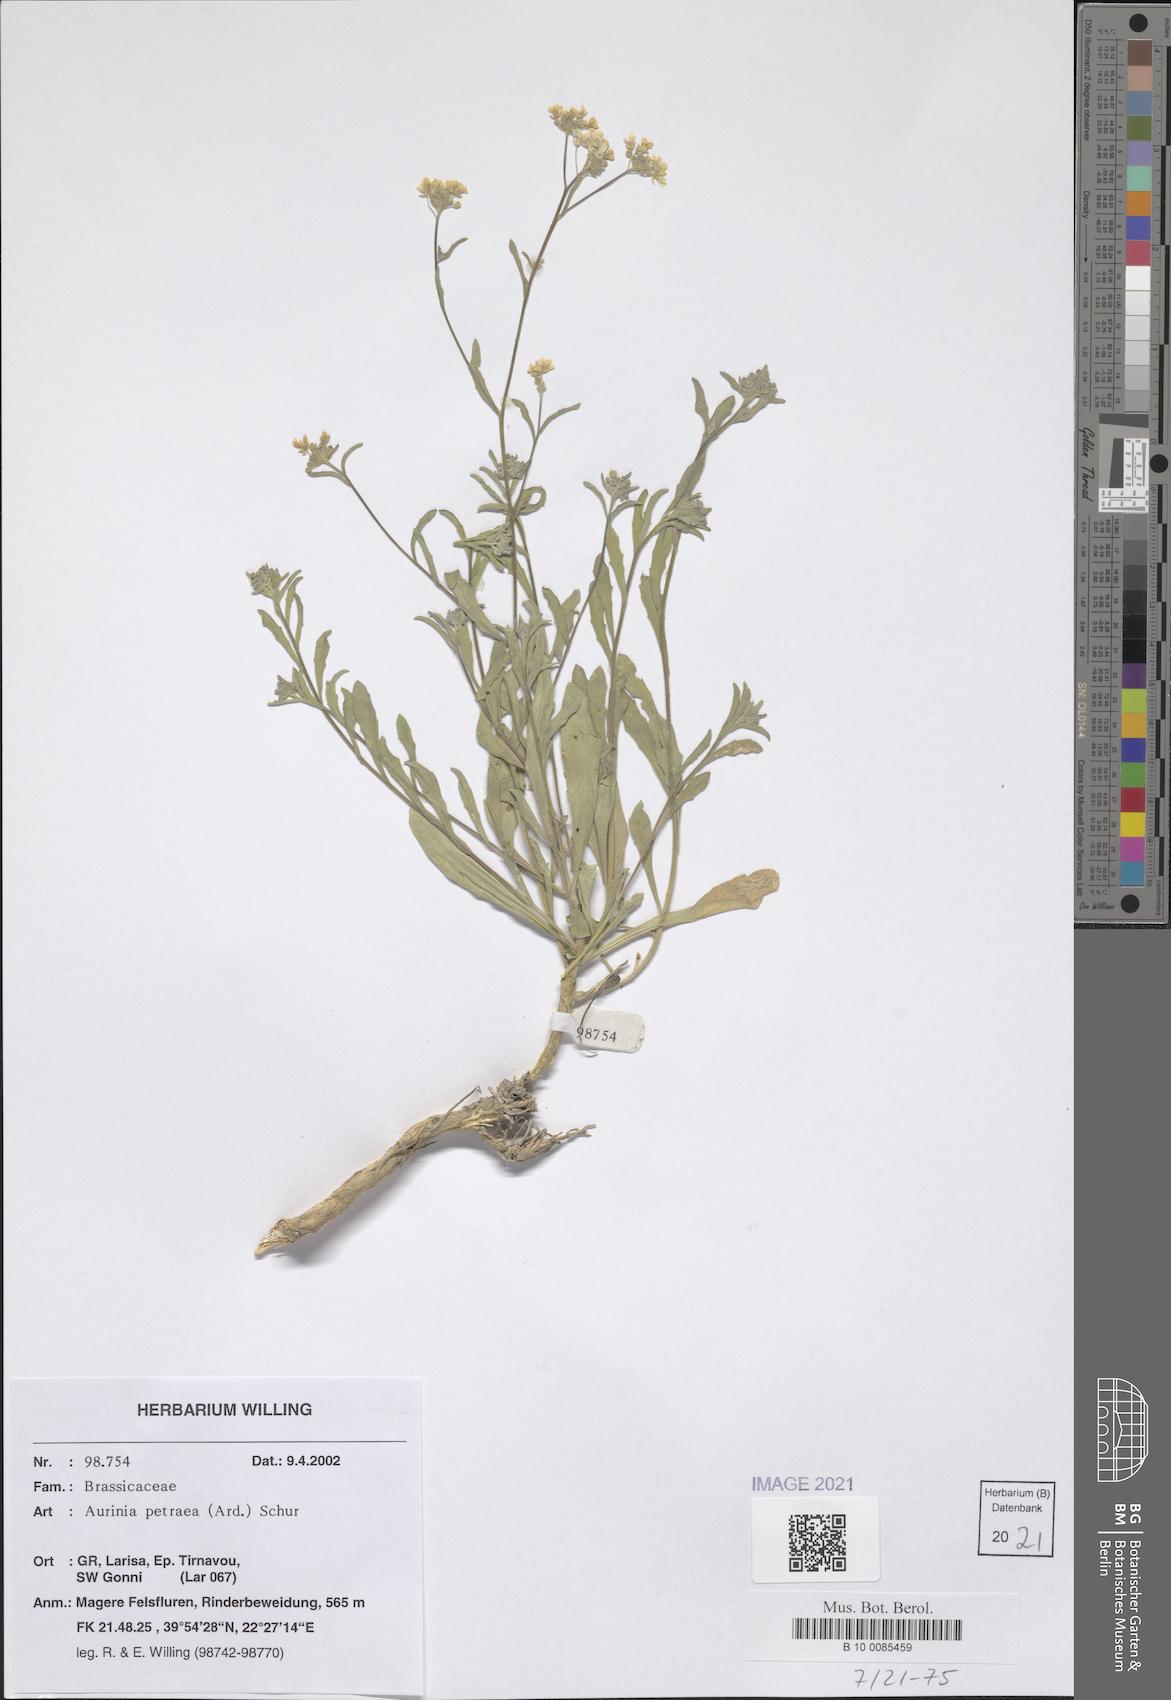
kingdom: Plantae
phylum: Tracheophyta
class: Magnoliopsida
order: Brassicales
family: Brassicaceae
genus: Aurinia
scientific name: Aurinia petraea
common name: Goldentuft
